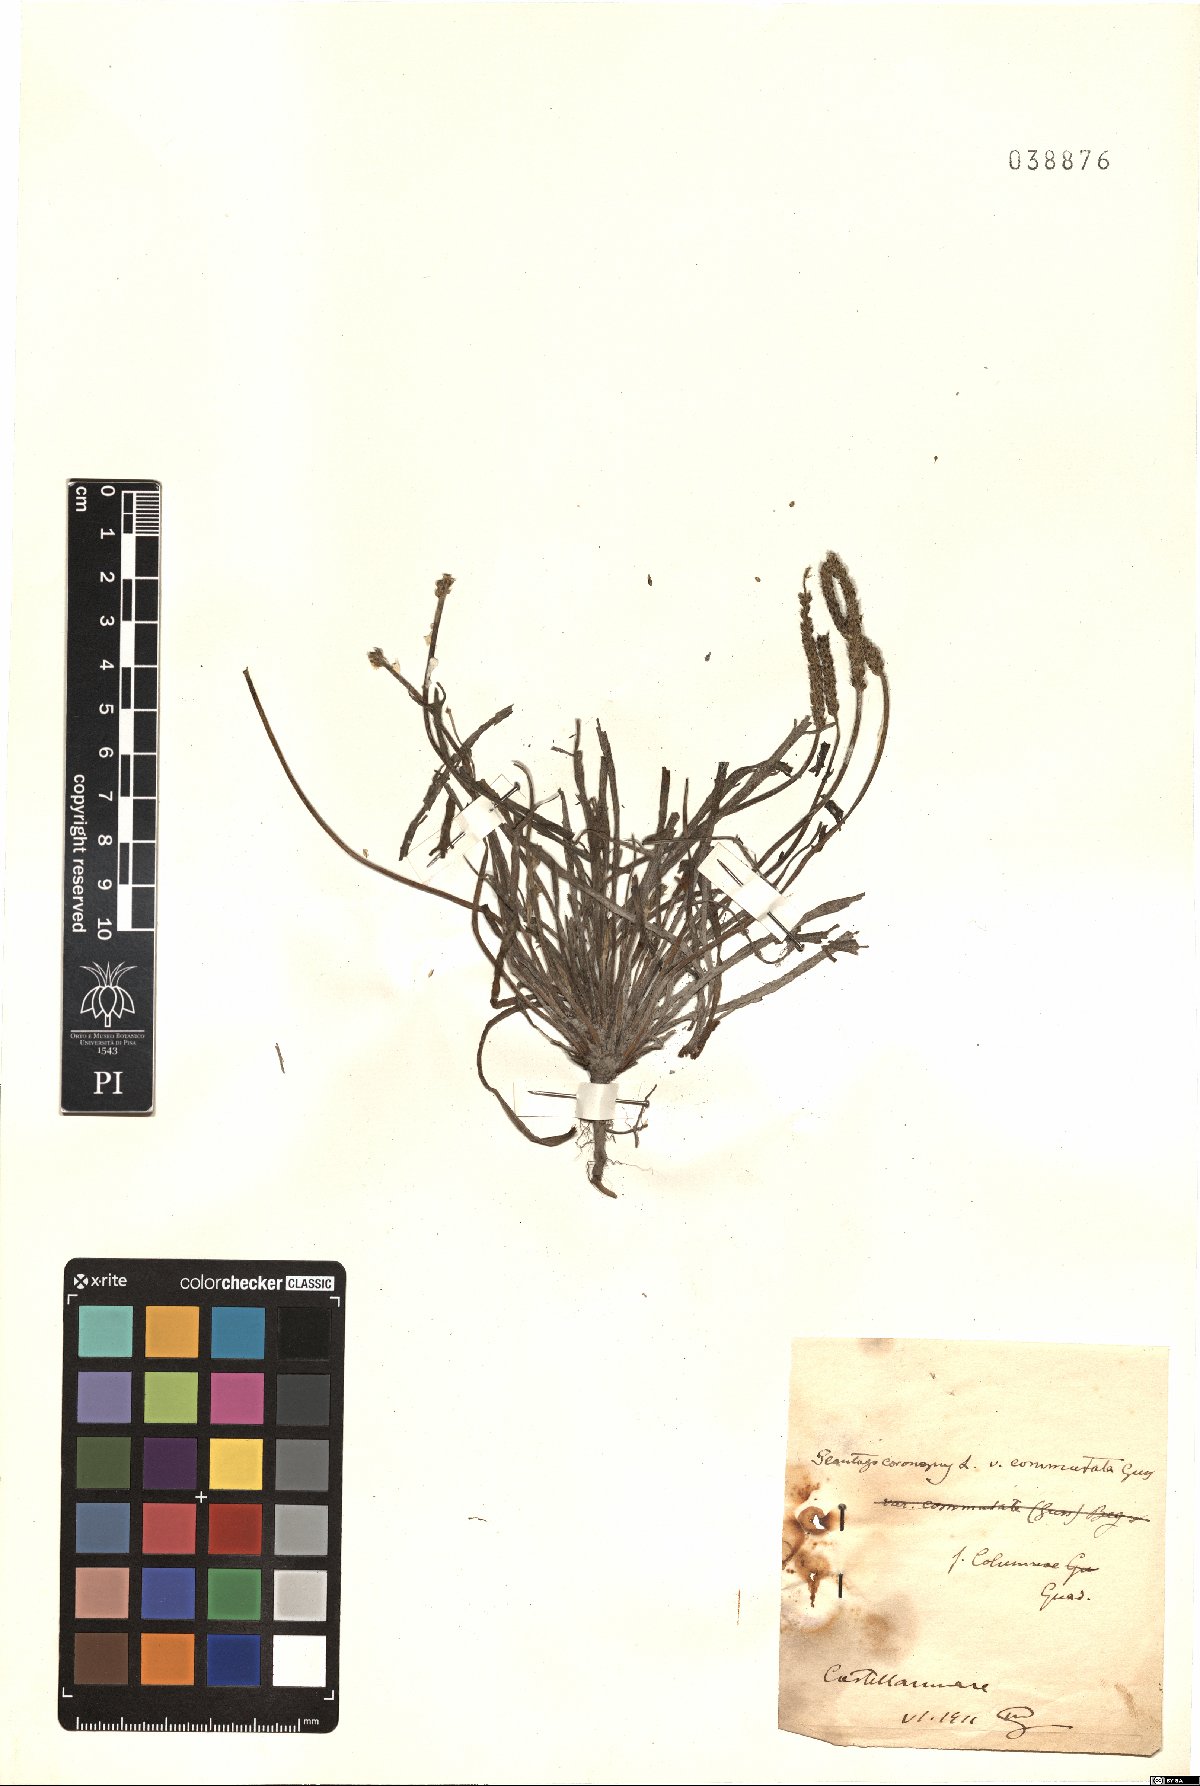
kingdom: Plantae
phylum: Tracheophyta
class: Magnoliopsida
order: Lamiales
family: Plantaginaceae
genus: Plantago
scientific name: Plantago weldenii
